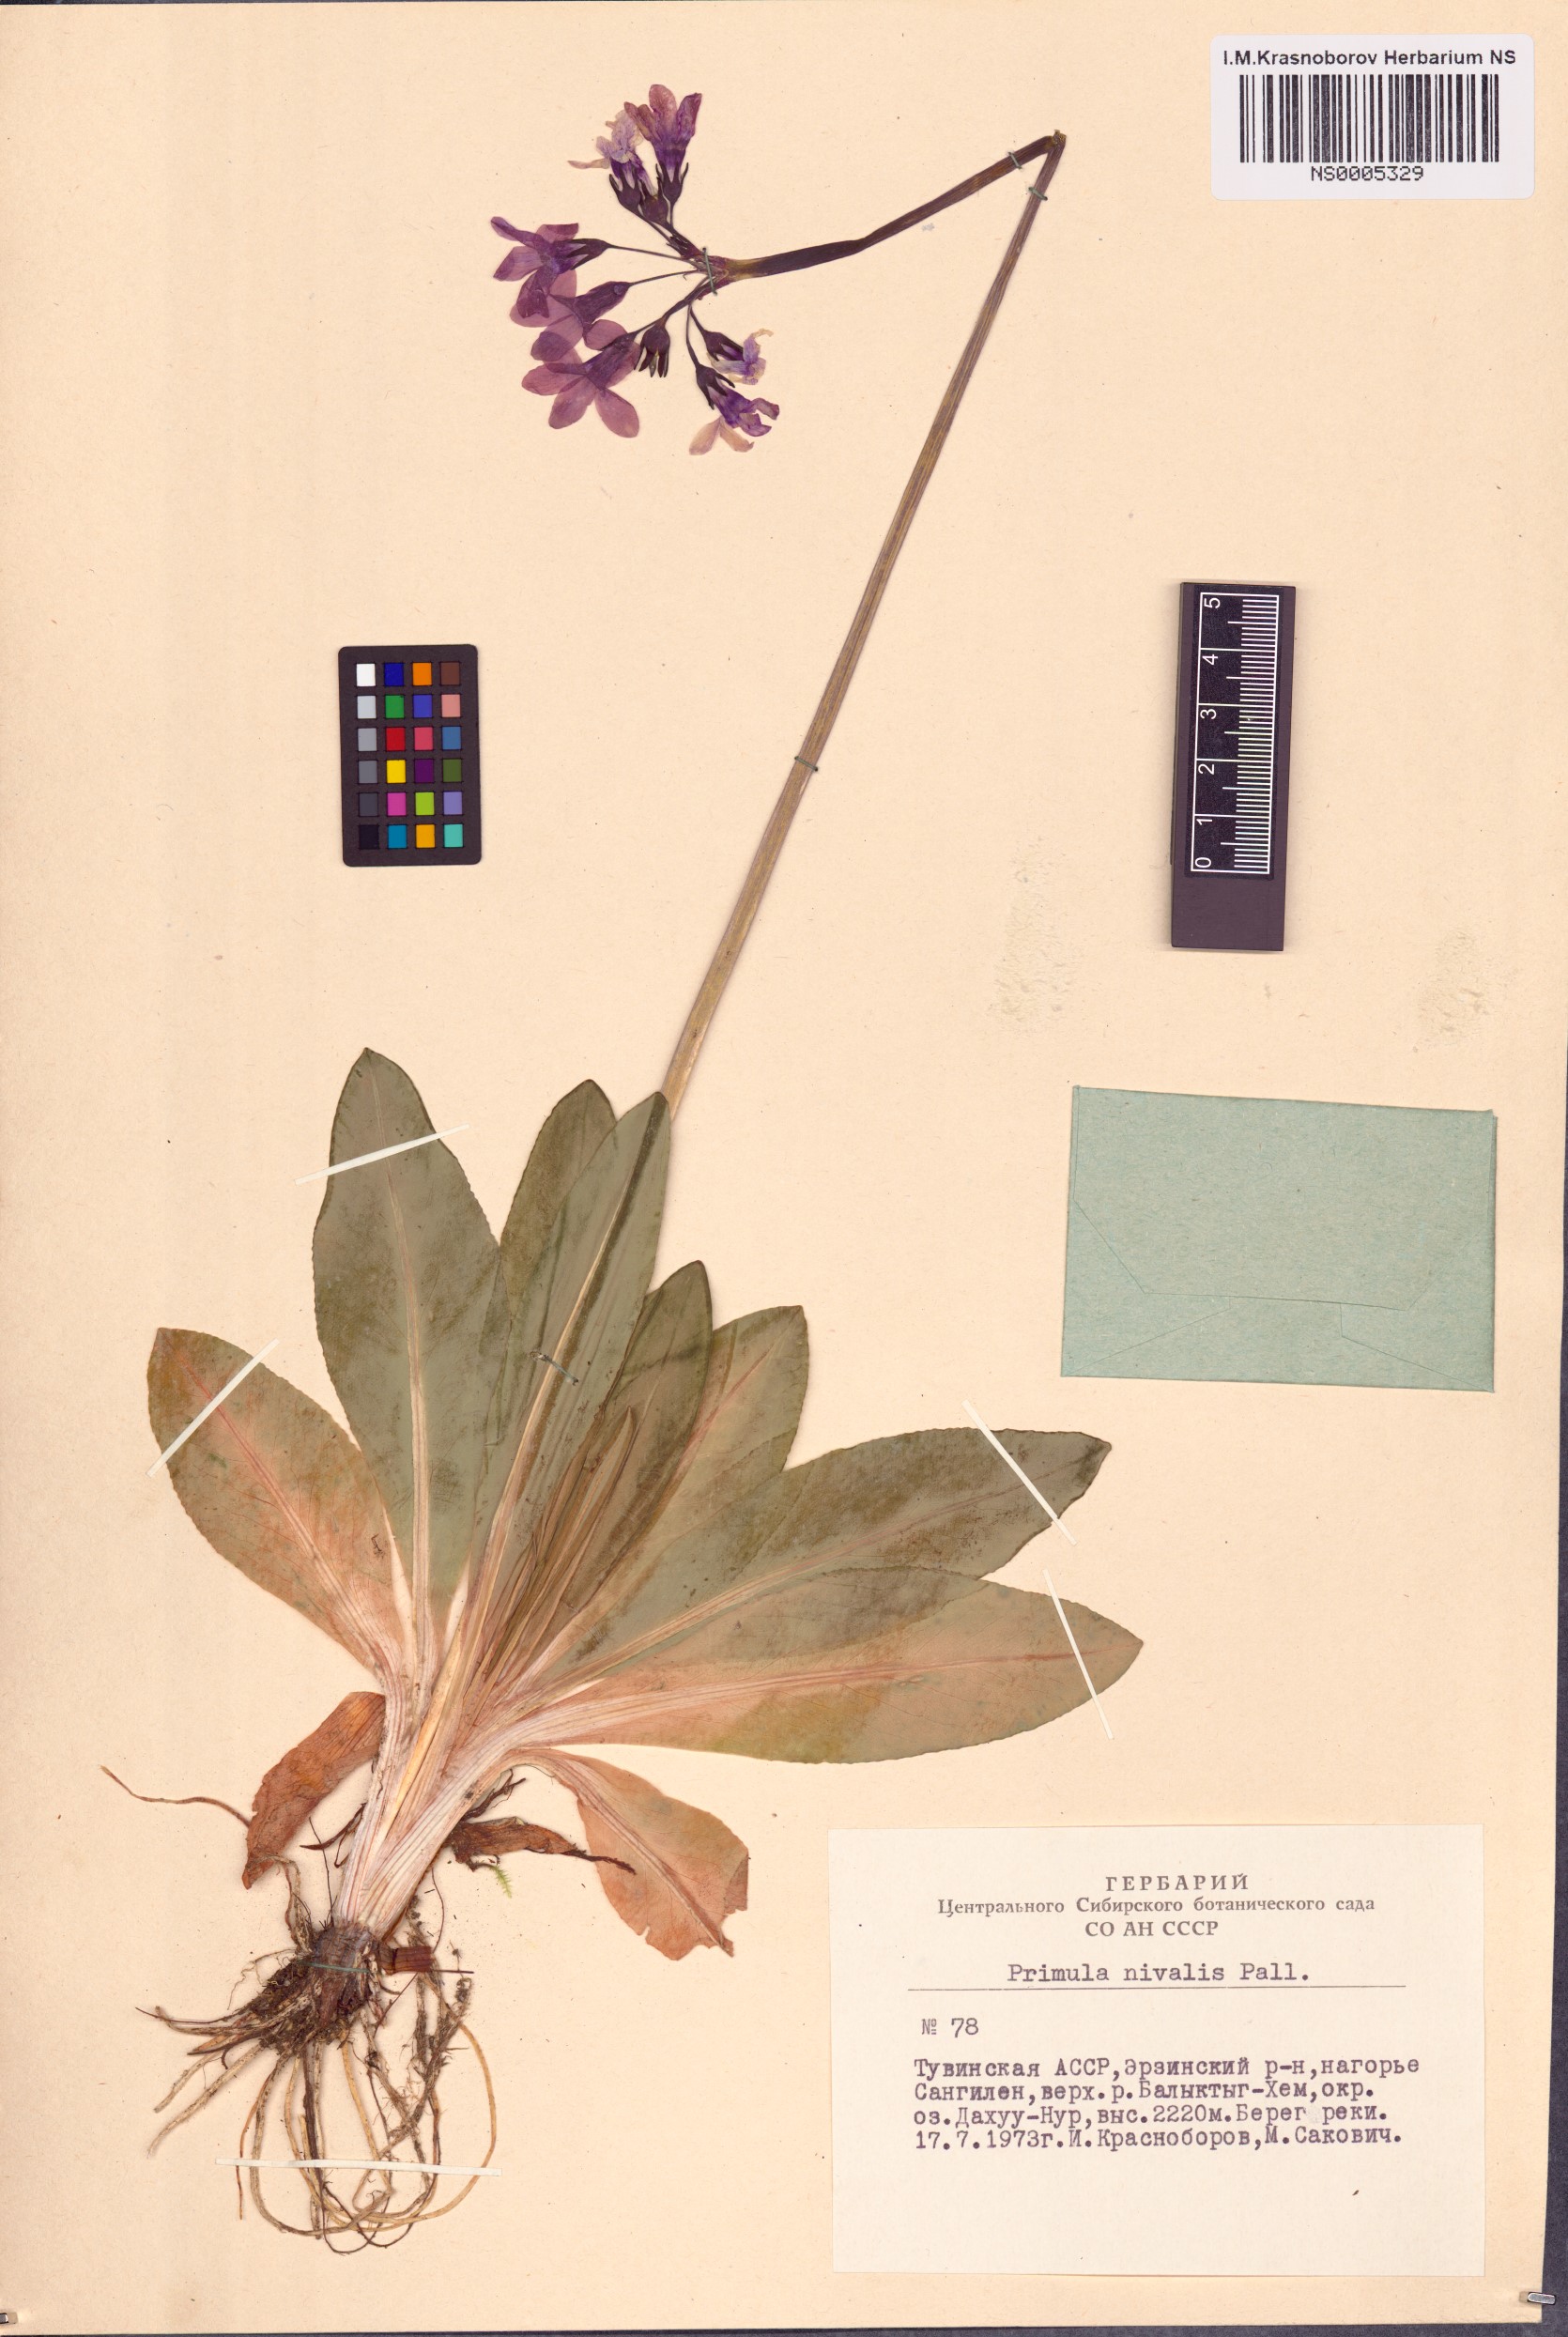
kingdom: Plantae
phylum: Tracheophyta
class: Magnoliopsida
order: Ericales
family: Primulaceae
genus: Primula
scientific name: Primula nivalis
